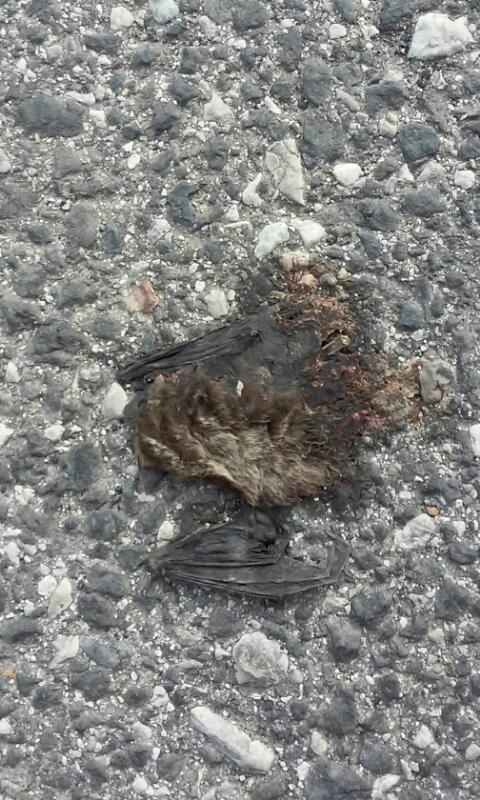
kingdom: Animalia
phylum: Chordata
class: Mammalia
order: Chiroptera
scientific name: Chiroptera
